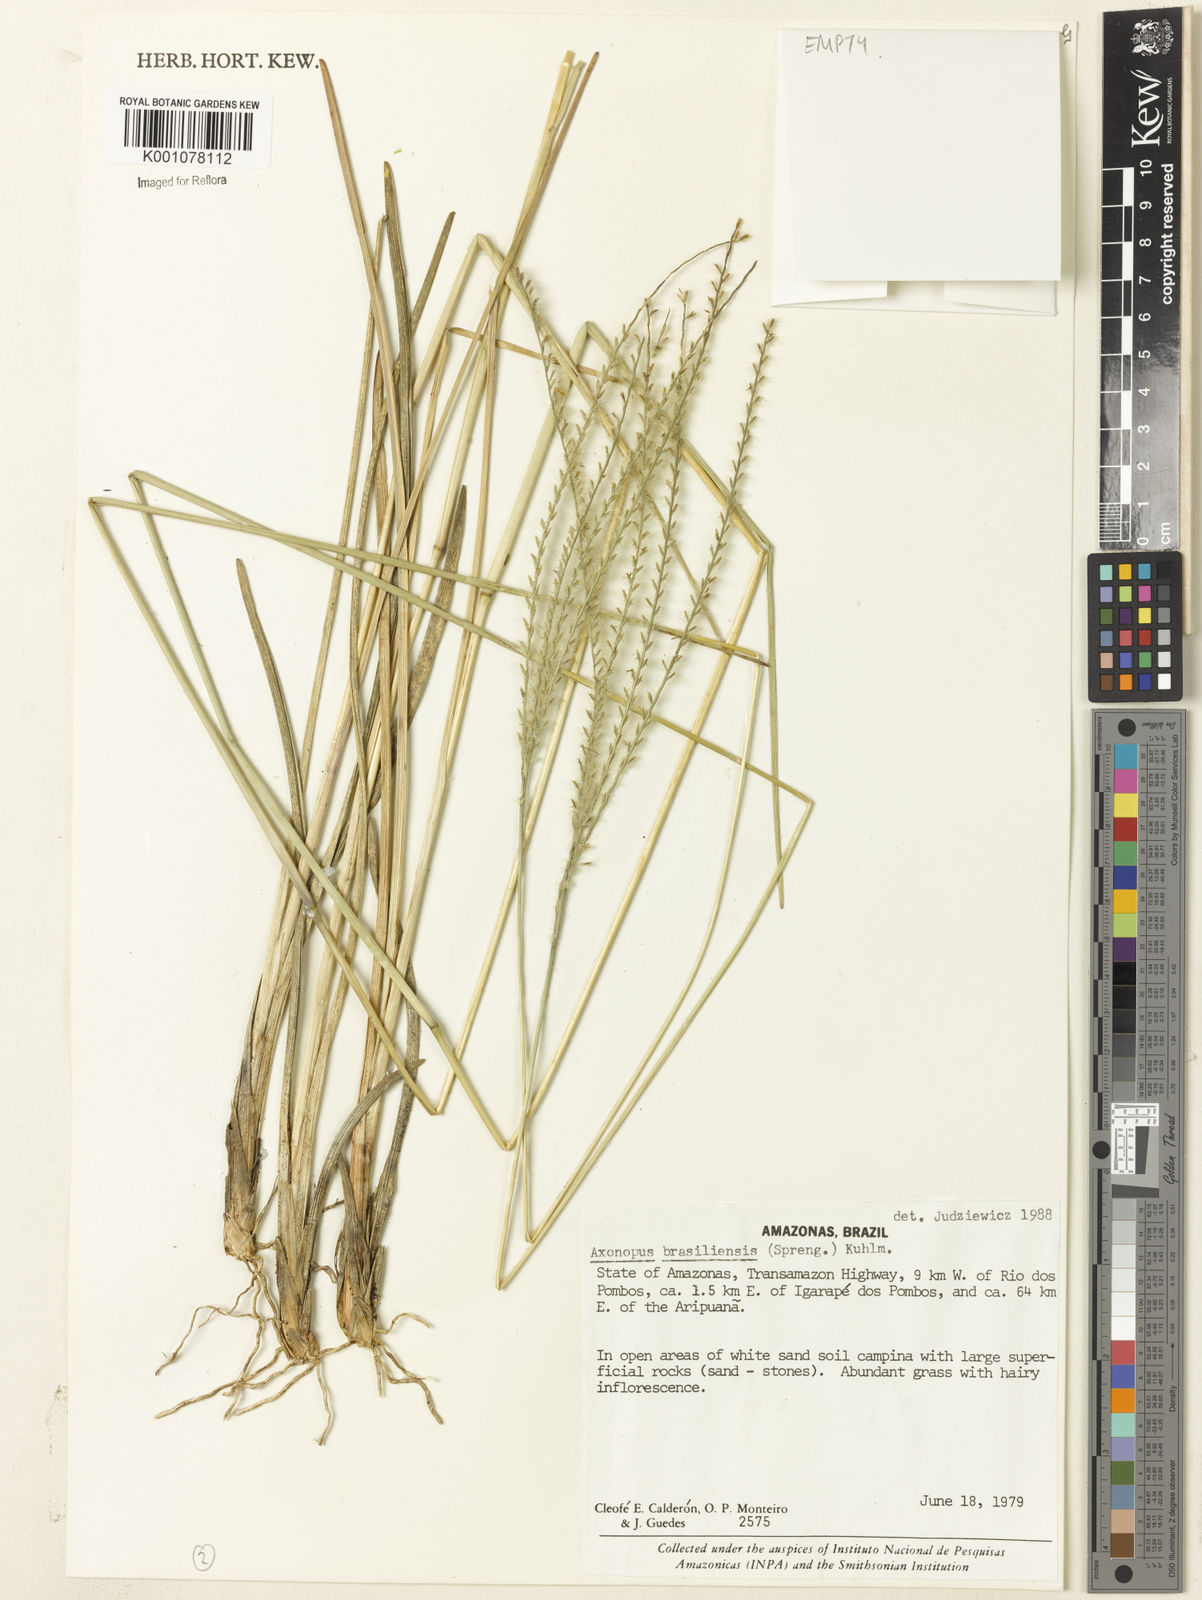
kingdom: Plantae
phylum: Tracheophyta
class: Liliopsida
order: Poales
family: Poaceae
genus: Axonopus
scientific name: Axonopus brasiliensis
